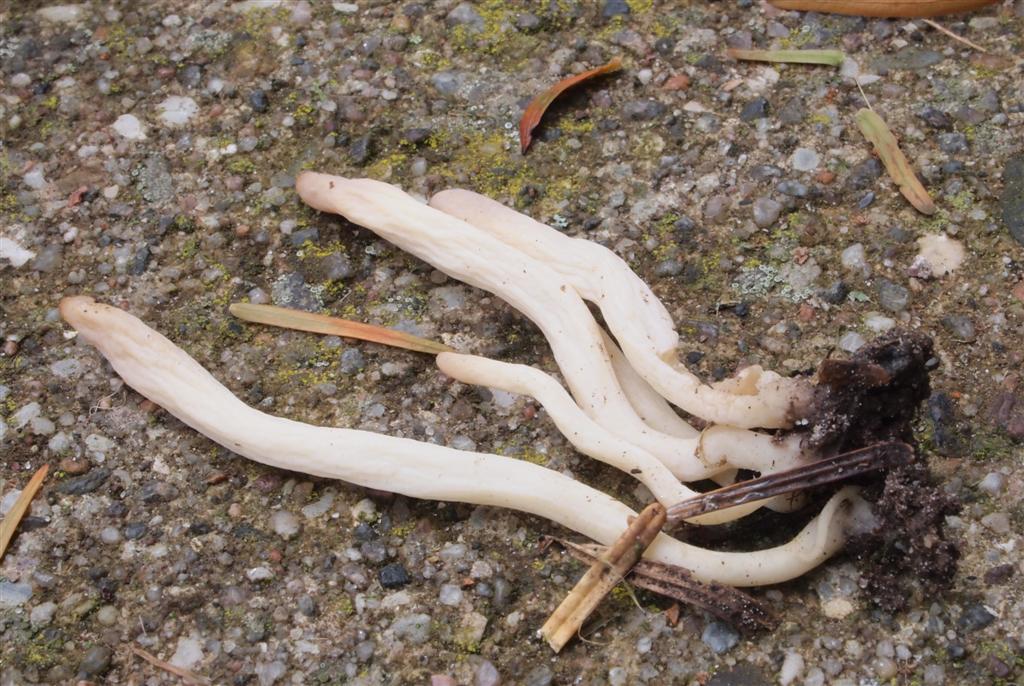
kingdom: Fungi
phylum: Basidiomycota
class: Agaricomycetes
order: Agaricales
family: Clavariaceae
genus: Clavaria
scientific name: Clavaria falcata
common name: hvid køllesvamp
